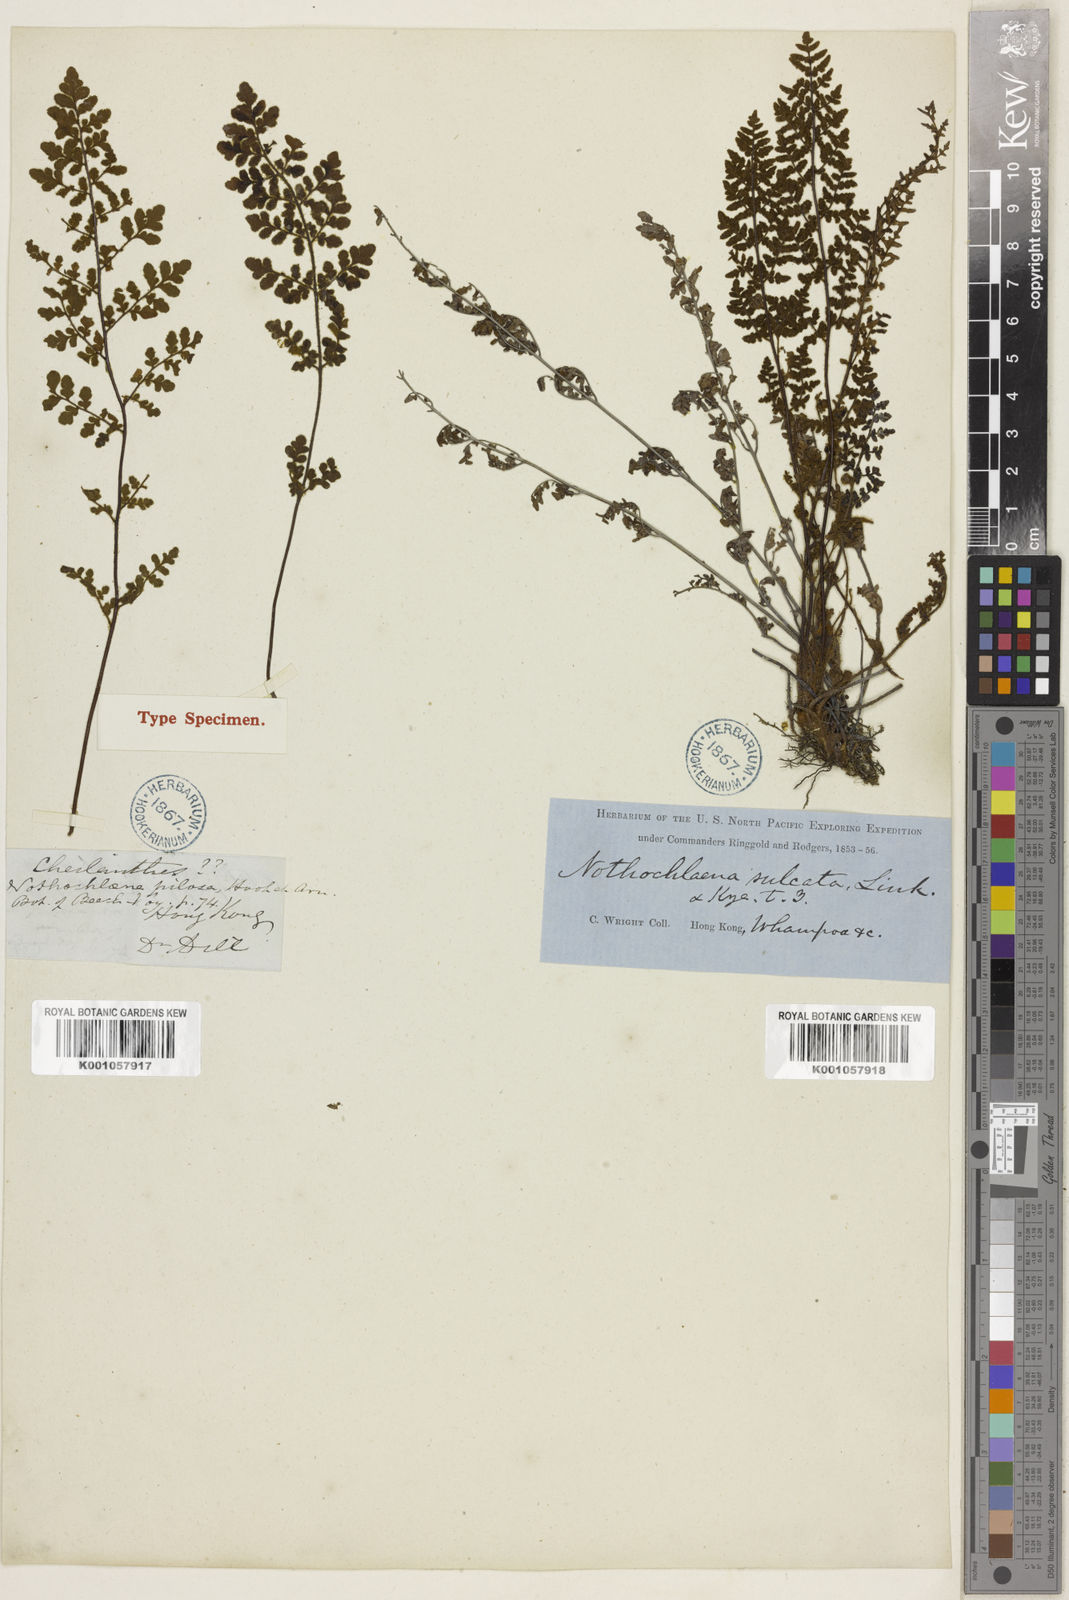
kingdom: Plantae
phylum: Tracheophyta
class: Polypodiopsida
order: Polypodiales
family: Pteridaceae
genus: Cheilanthes
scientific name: Cheilanthes
